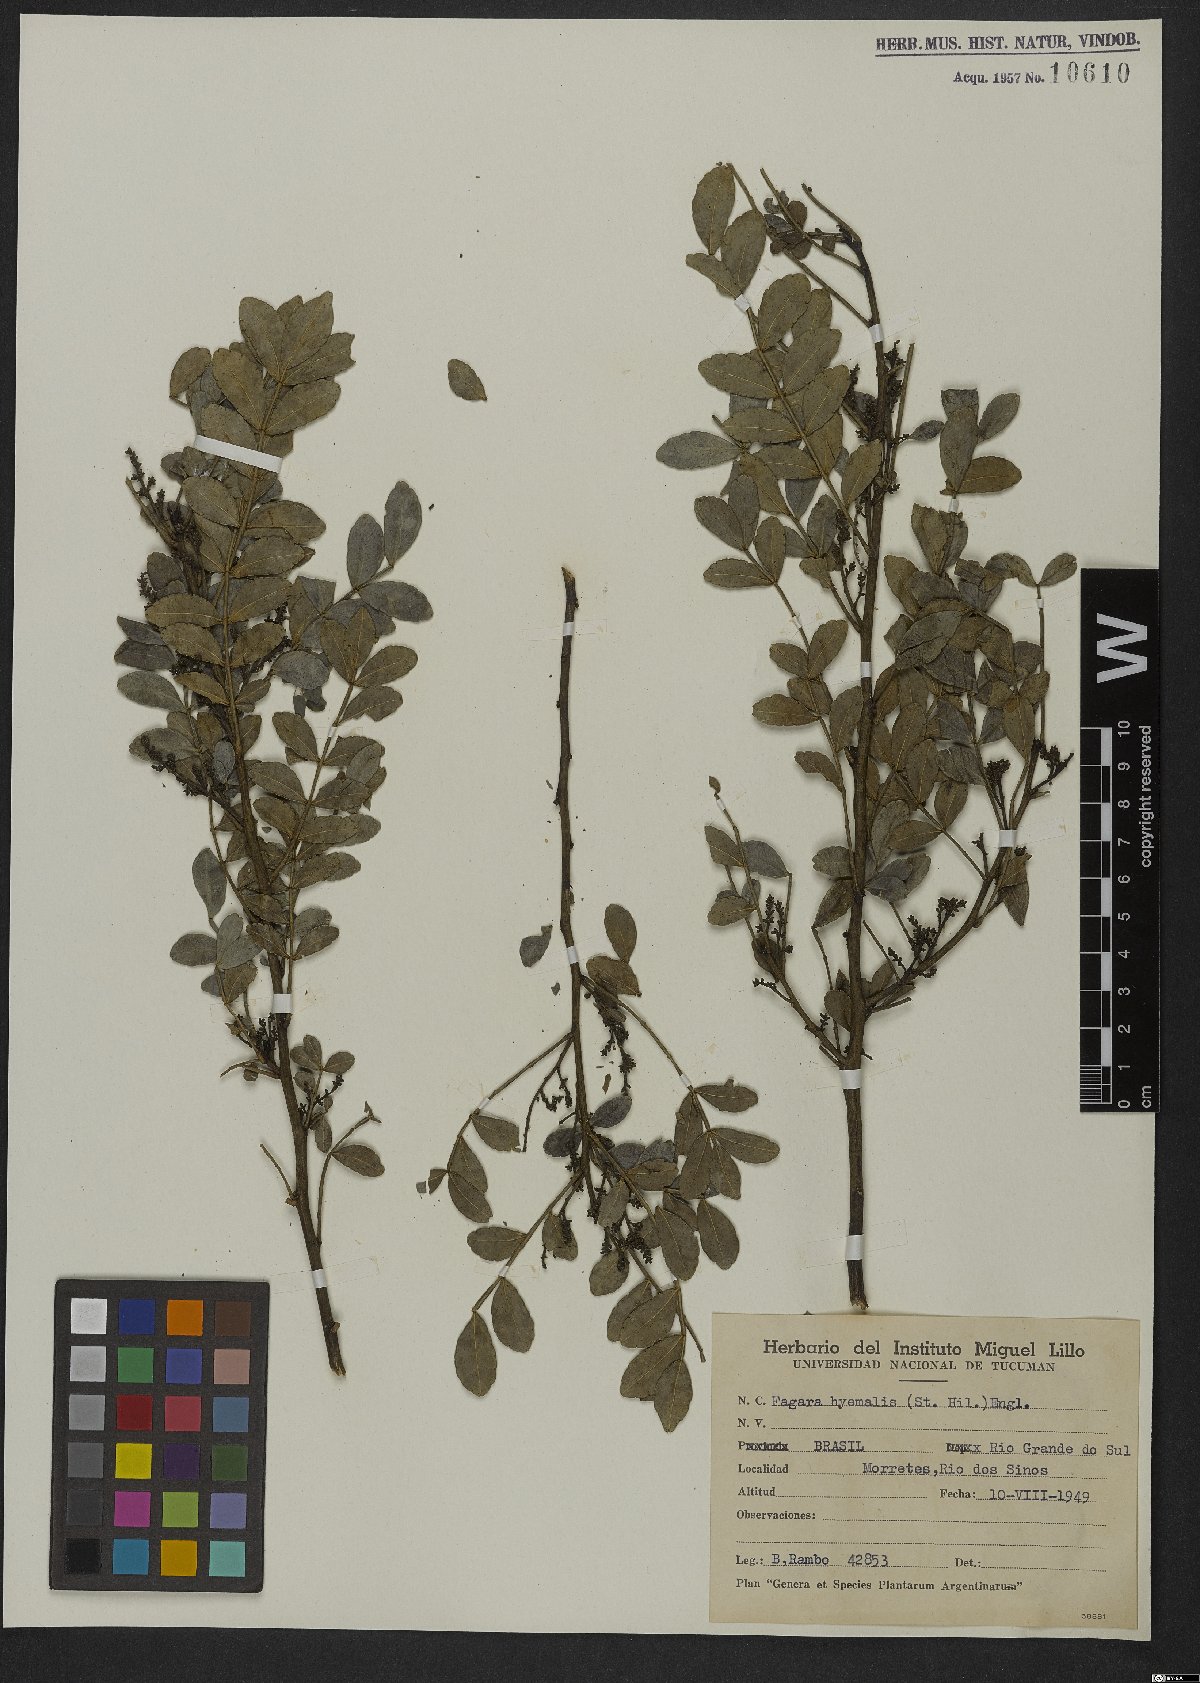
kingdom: Plantae
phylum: Tracheophyta
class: Magnoliopsida
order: Sapindales
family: Rutaceae
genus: Zanthoxylum
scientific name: Zanthoxylum fagara
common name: Lime prickly-ash
